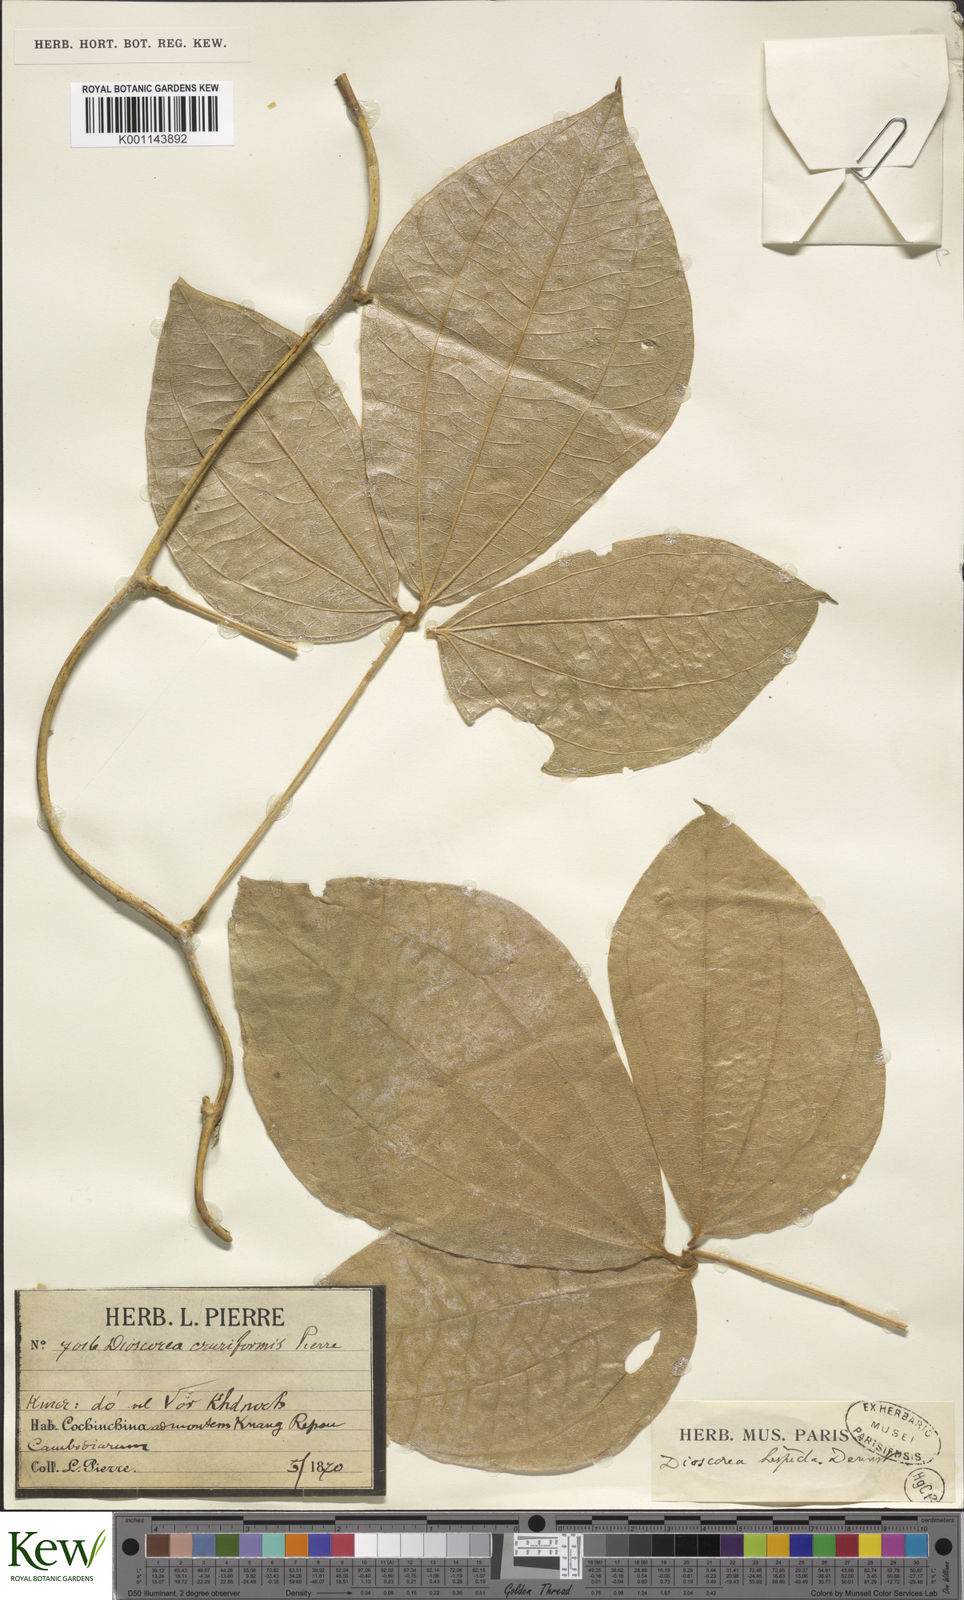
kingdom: Plantae
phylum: Tracheophyta
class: Liliopsida
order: Dioscoreales
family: Dioscoreaceae
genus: Dioscorea
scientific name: Dioscorea hispida
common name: Asiatic bitter yam
